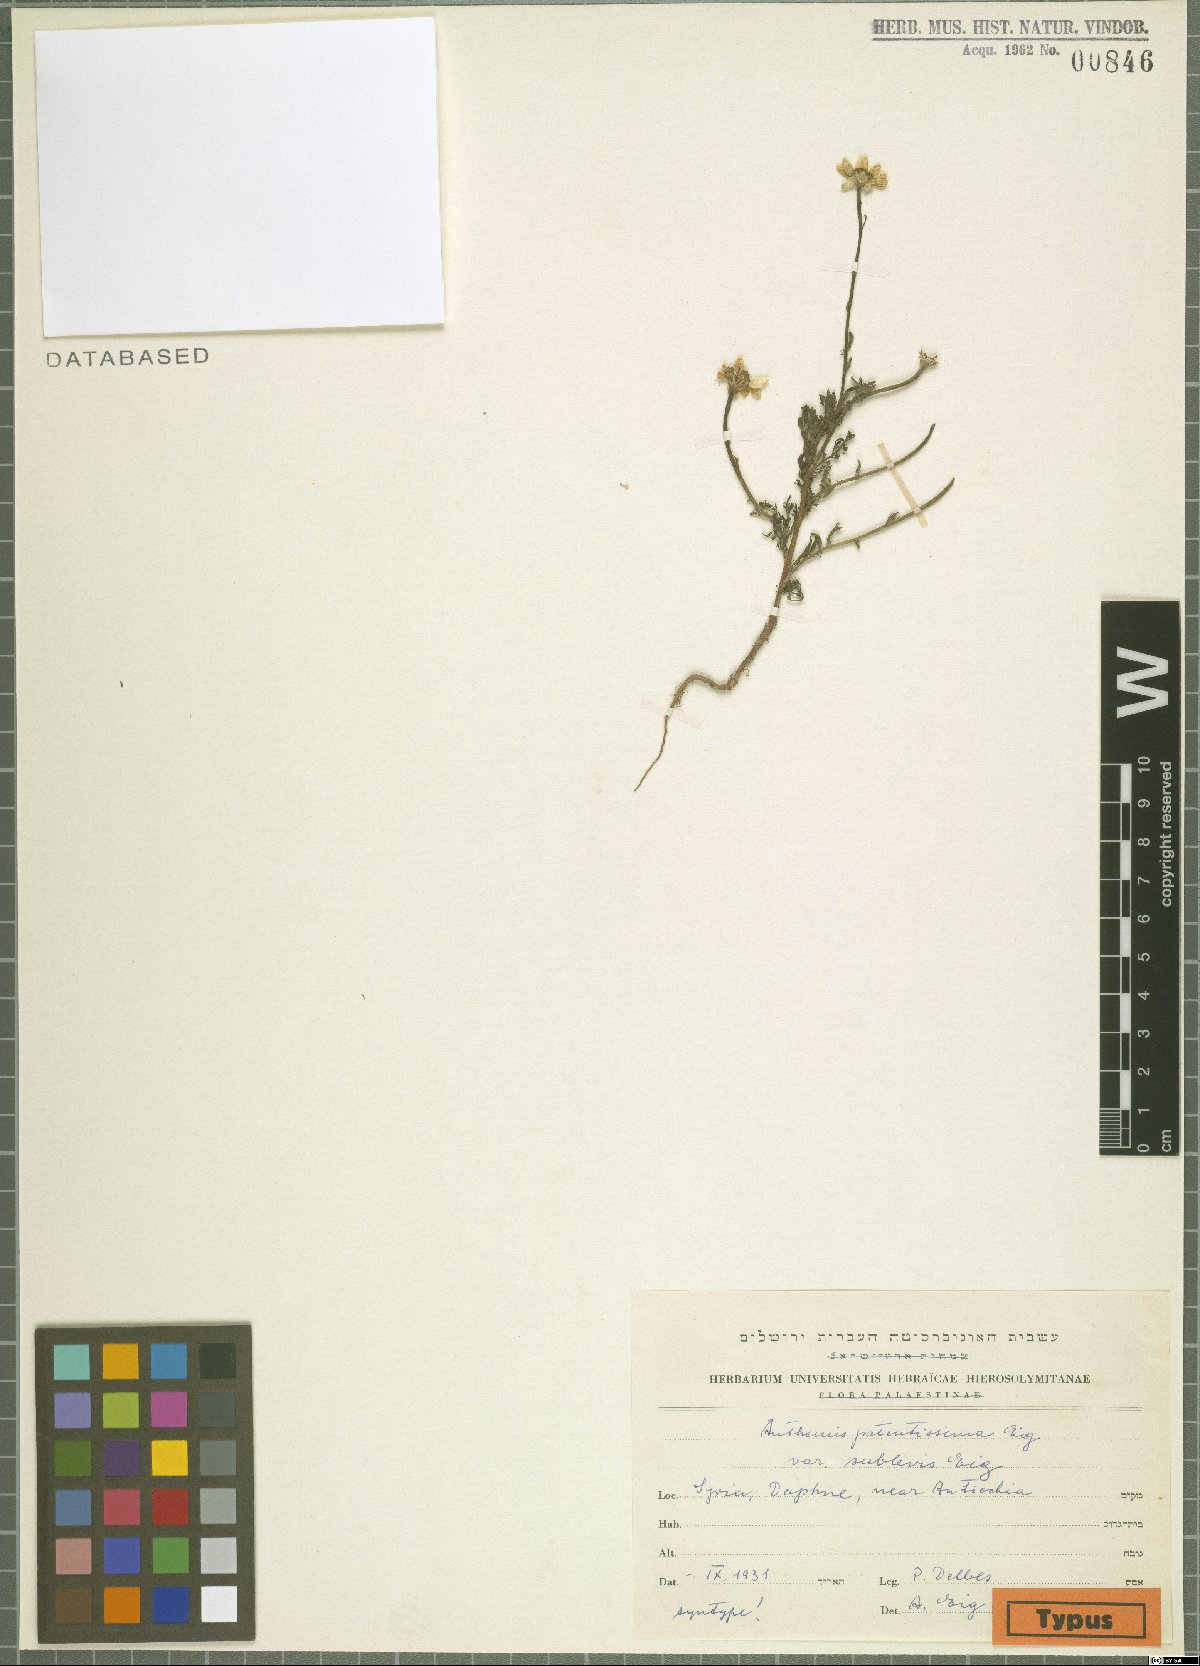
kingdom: Plantae
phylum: Tracheophyta
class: Magnoliopsida
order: Asterales
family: Asteraceae
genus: Anthemis
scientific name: Anthemis patentissima
